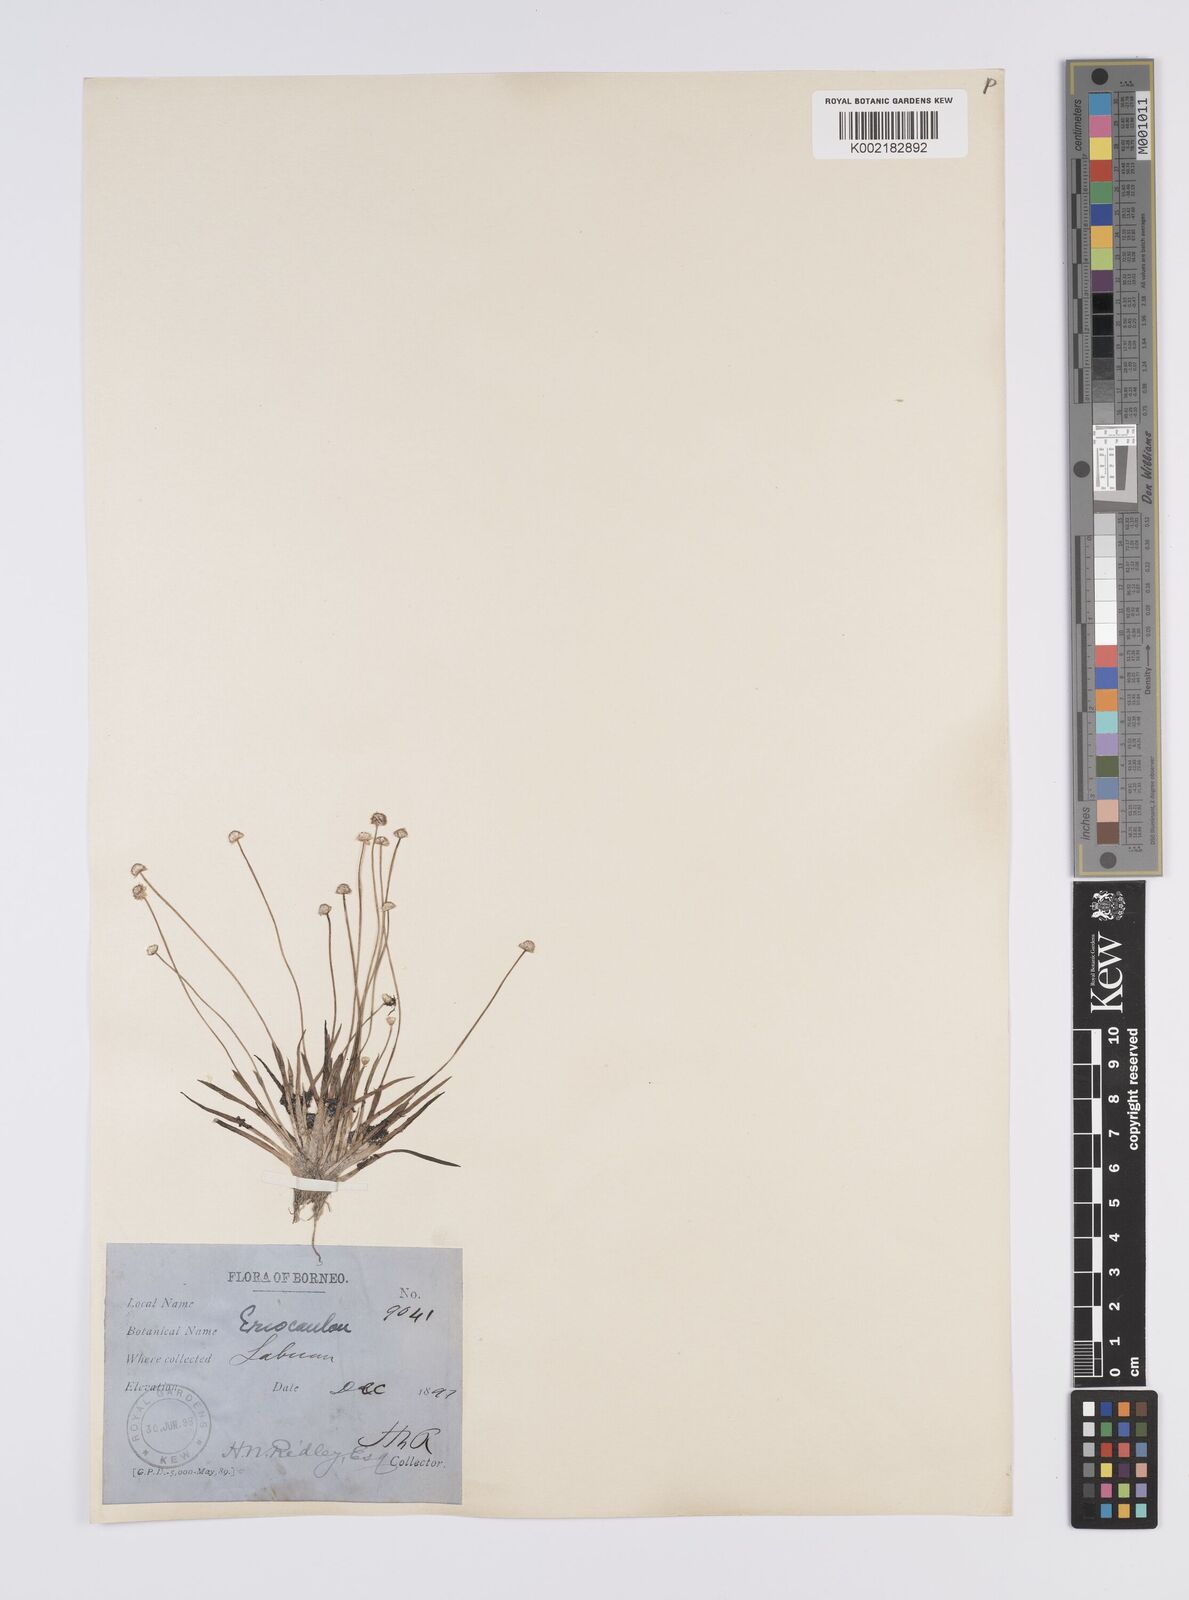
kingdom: Plantae
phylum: Tracheophyta
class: Liliopsida
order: Poales
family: Eriocaulaceae
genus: Eriocaulon
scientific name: Eriocaulon
